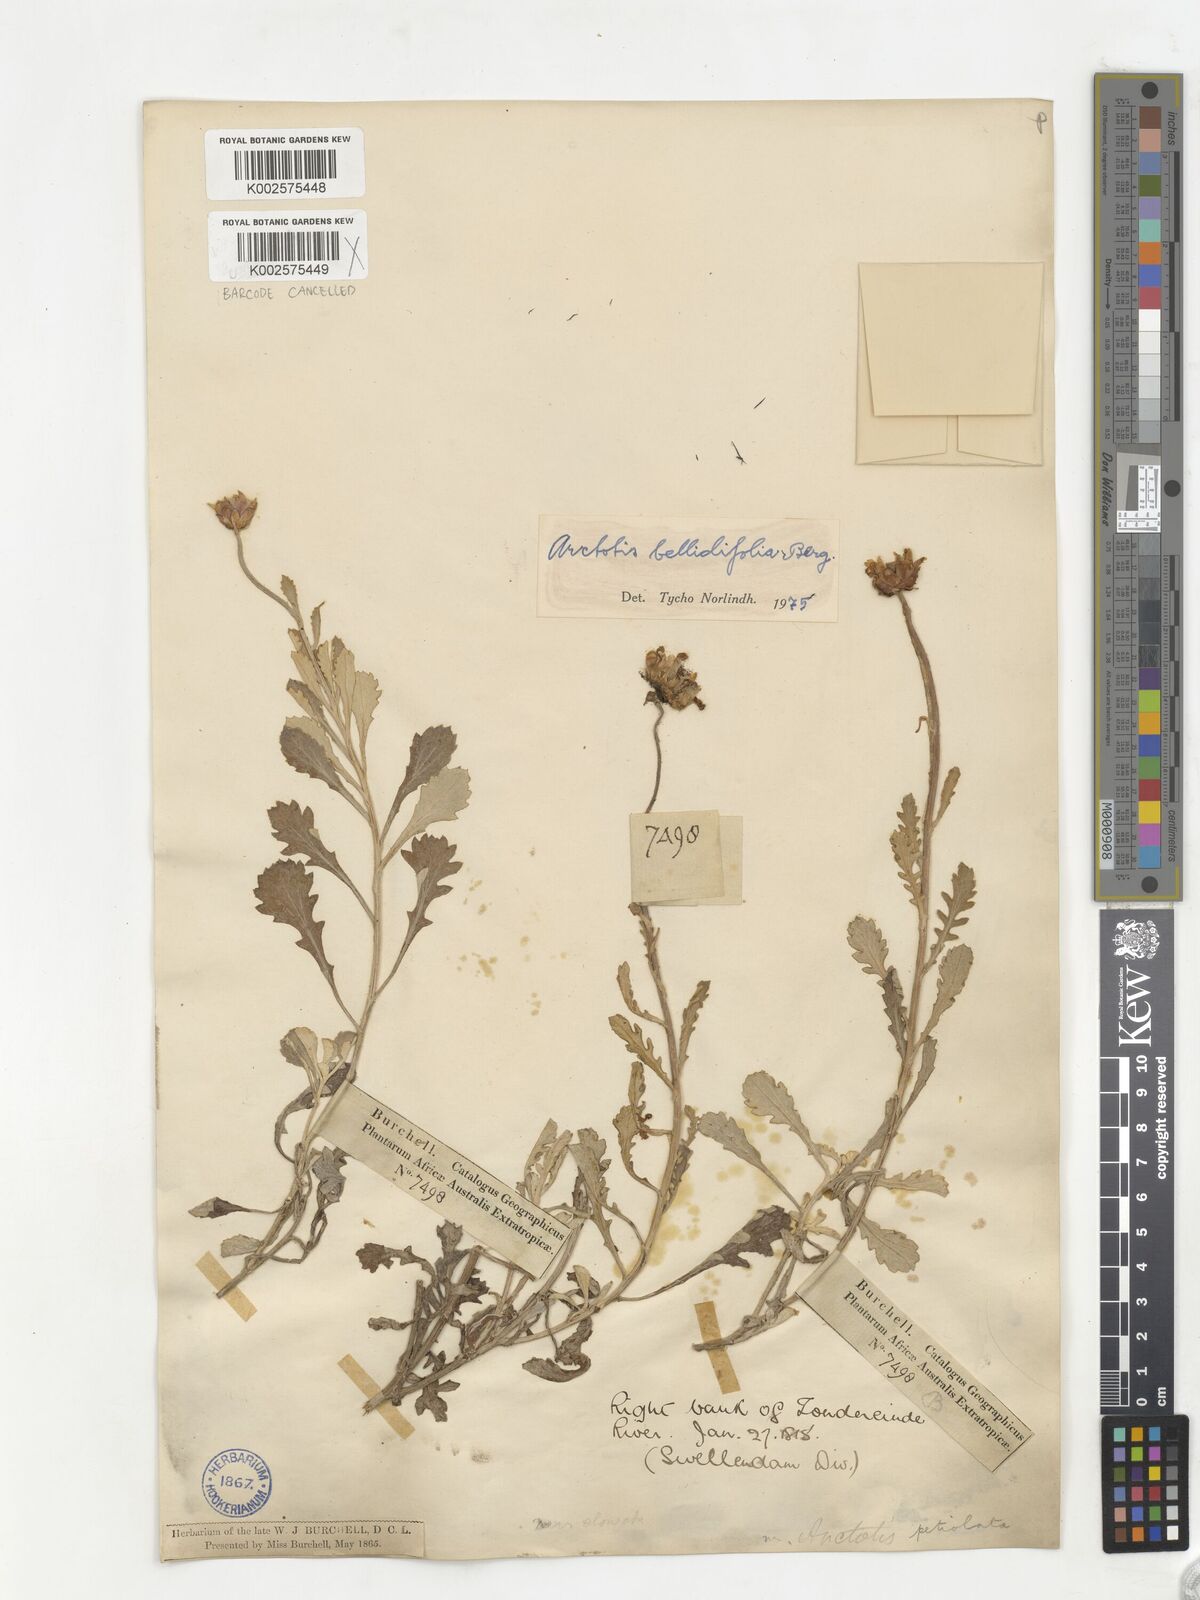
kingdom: Plantae
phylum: Tracheophyta
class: Magnoliopsida
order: Asterales
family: Asteraceae
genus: Arctotis
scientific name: Arctotis bellidifolia
